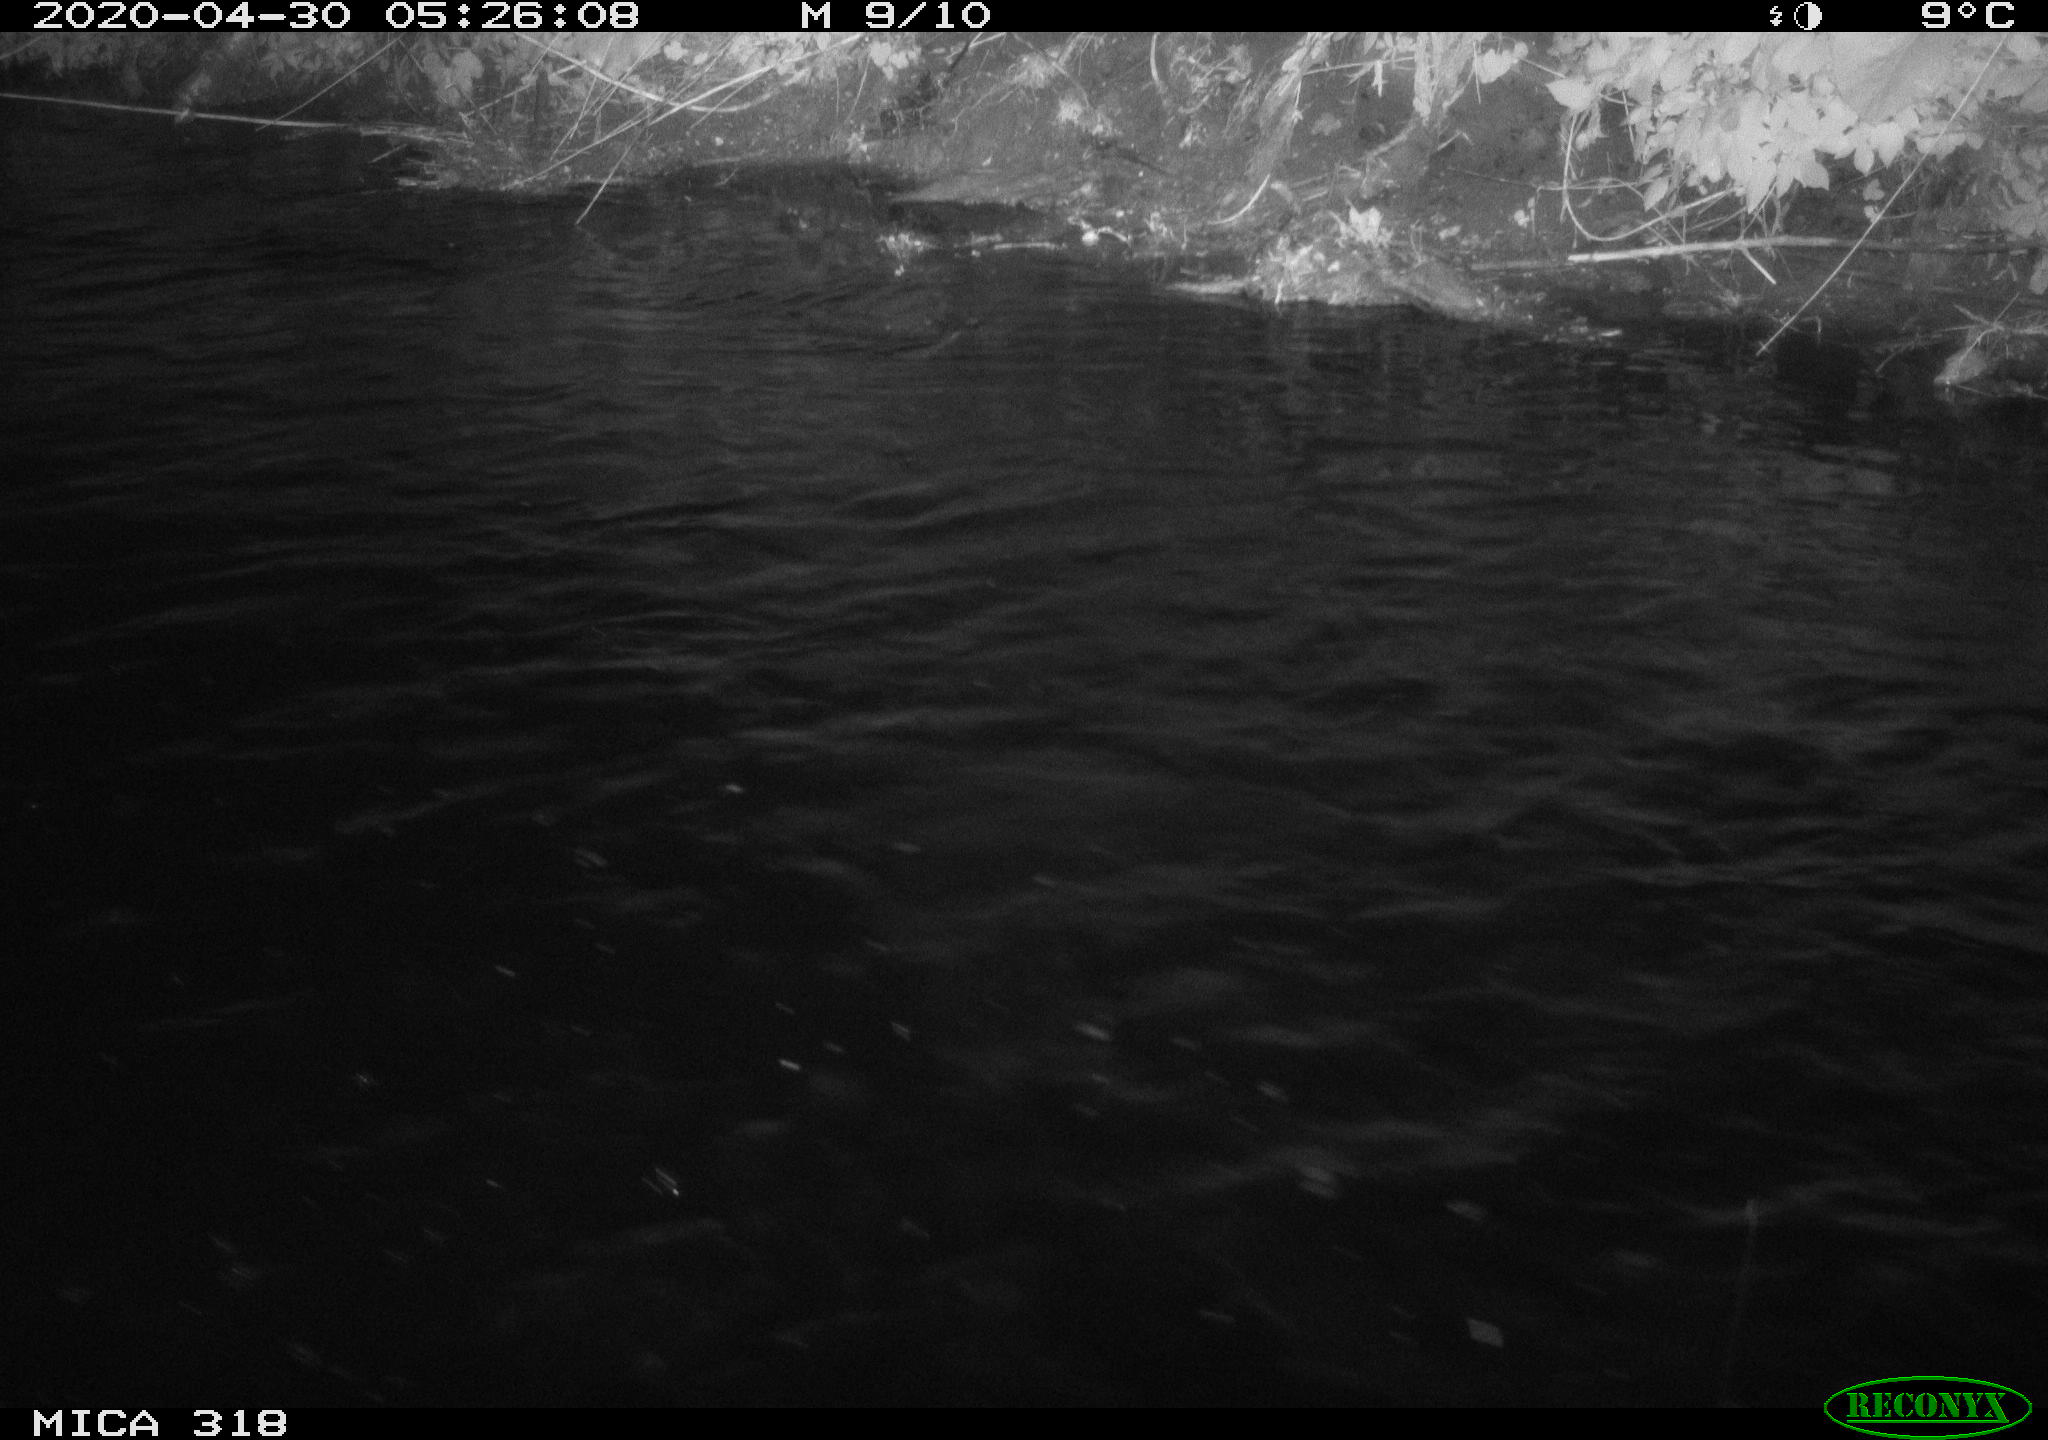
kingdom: Animalia
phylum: Chordata
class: Aves
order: Pelecaniformes
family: Ardeidae
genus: Ardea
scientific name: Ardea cinerea
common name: Grey heron
